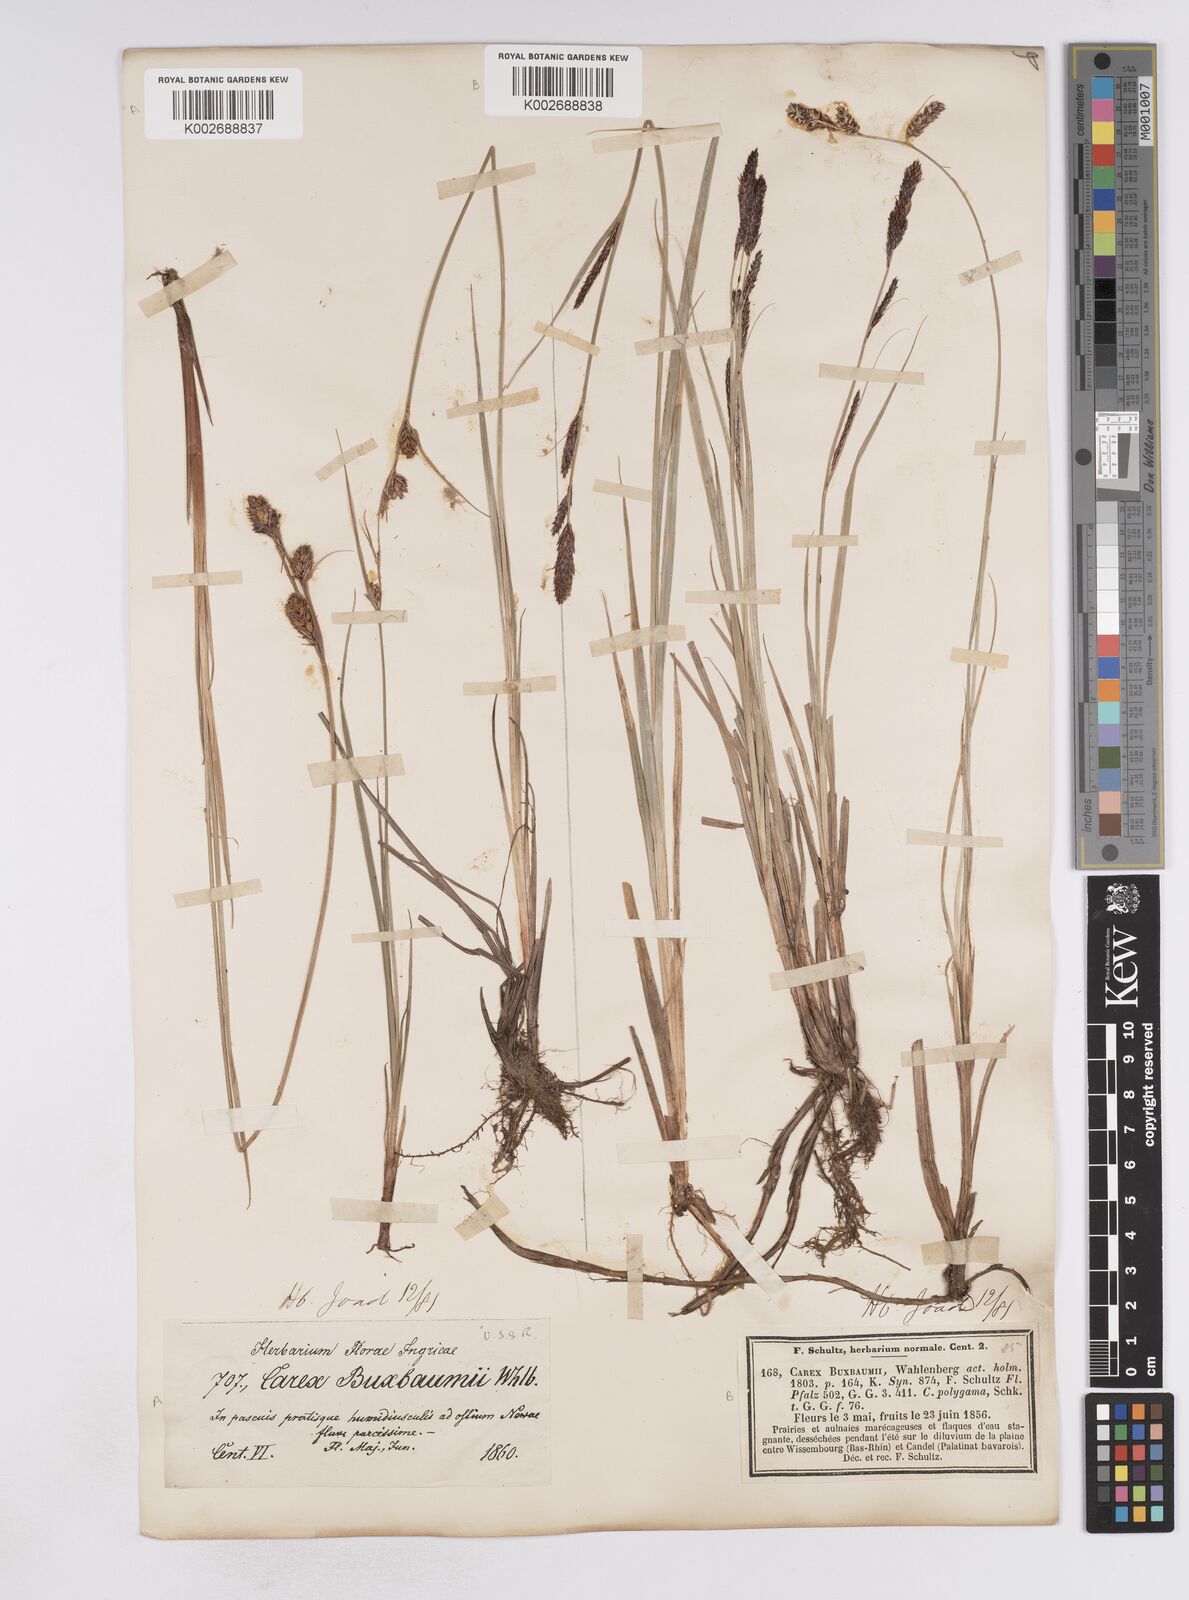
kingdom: Plantae
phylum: Tracheophyta
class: Liliopsida
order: Poales
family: Cyperaceae
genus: Carex
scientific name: Carex buxbaumii
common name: Club sedge
